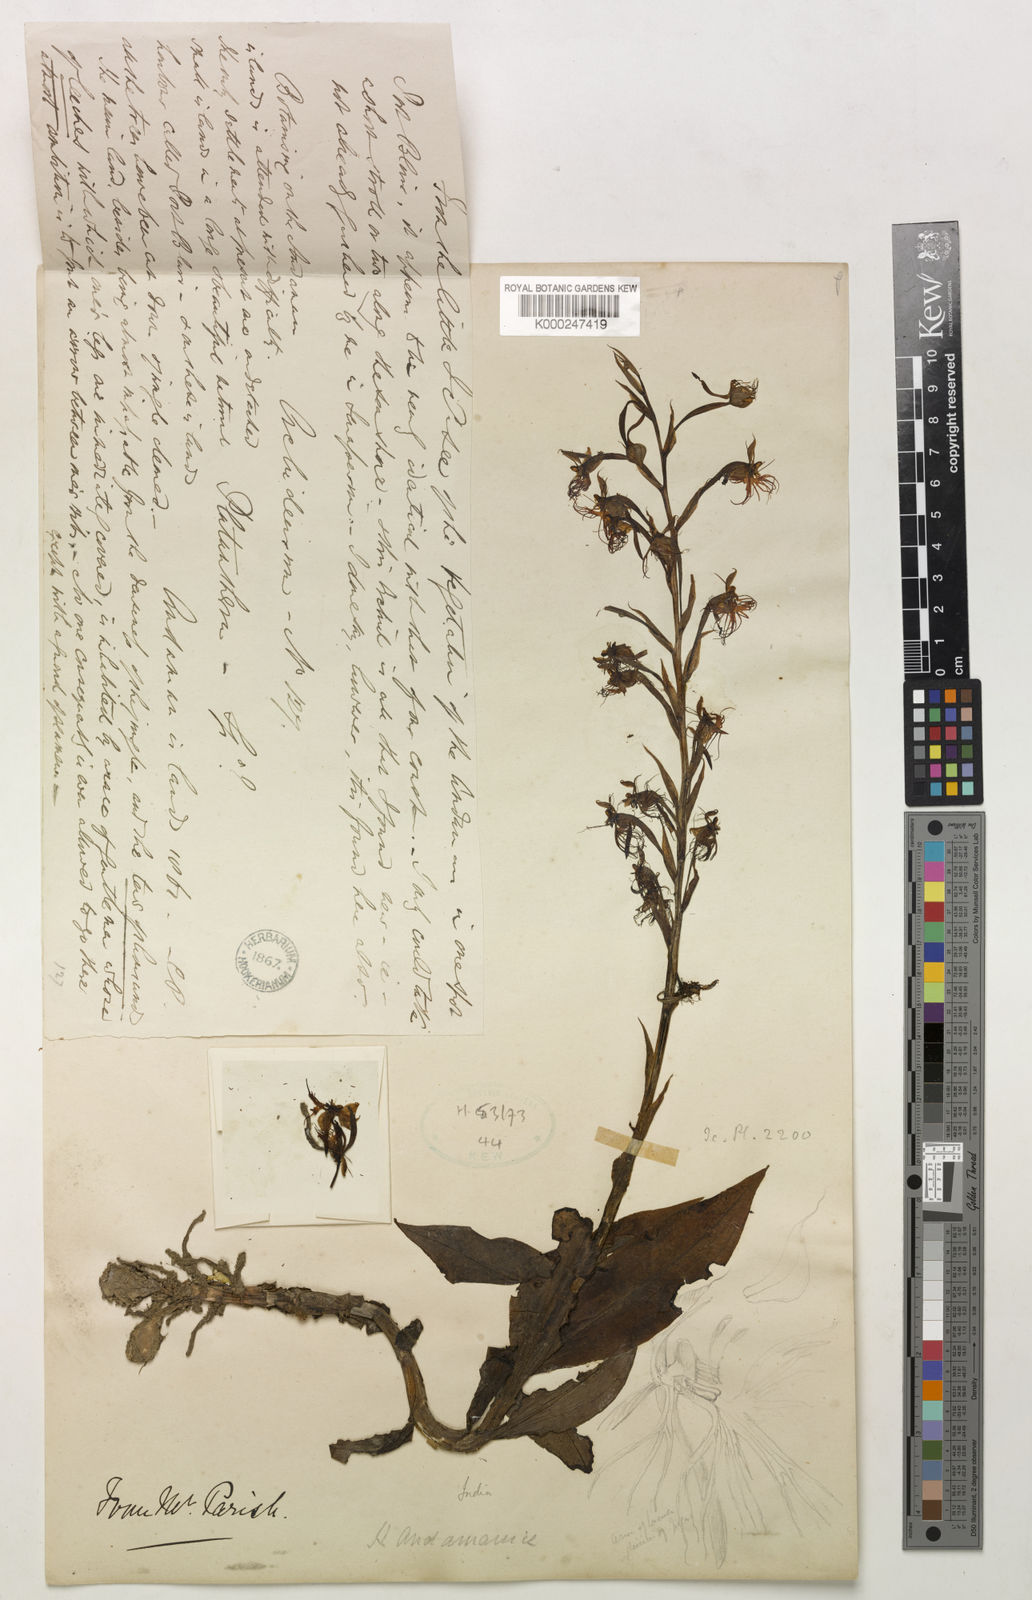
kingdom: Plantae
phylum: Tracheophyta
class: Liliopsida
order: Asparagales
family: Orchidaceae
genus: Habenaria
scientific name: Habenaria andamanica
